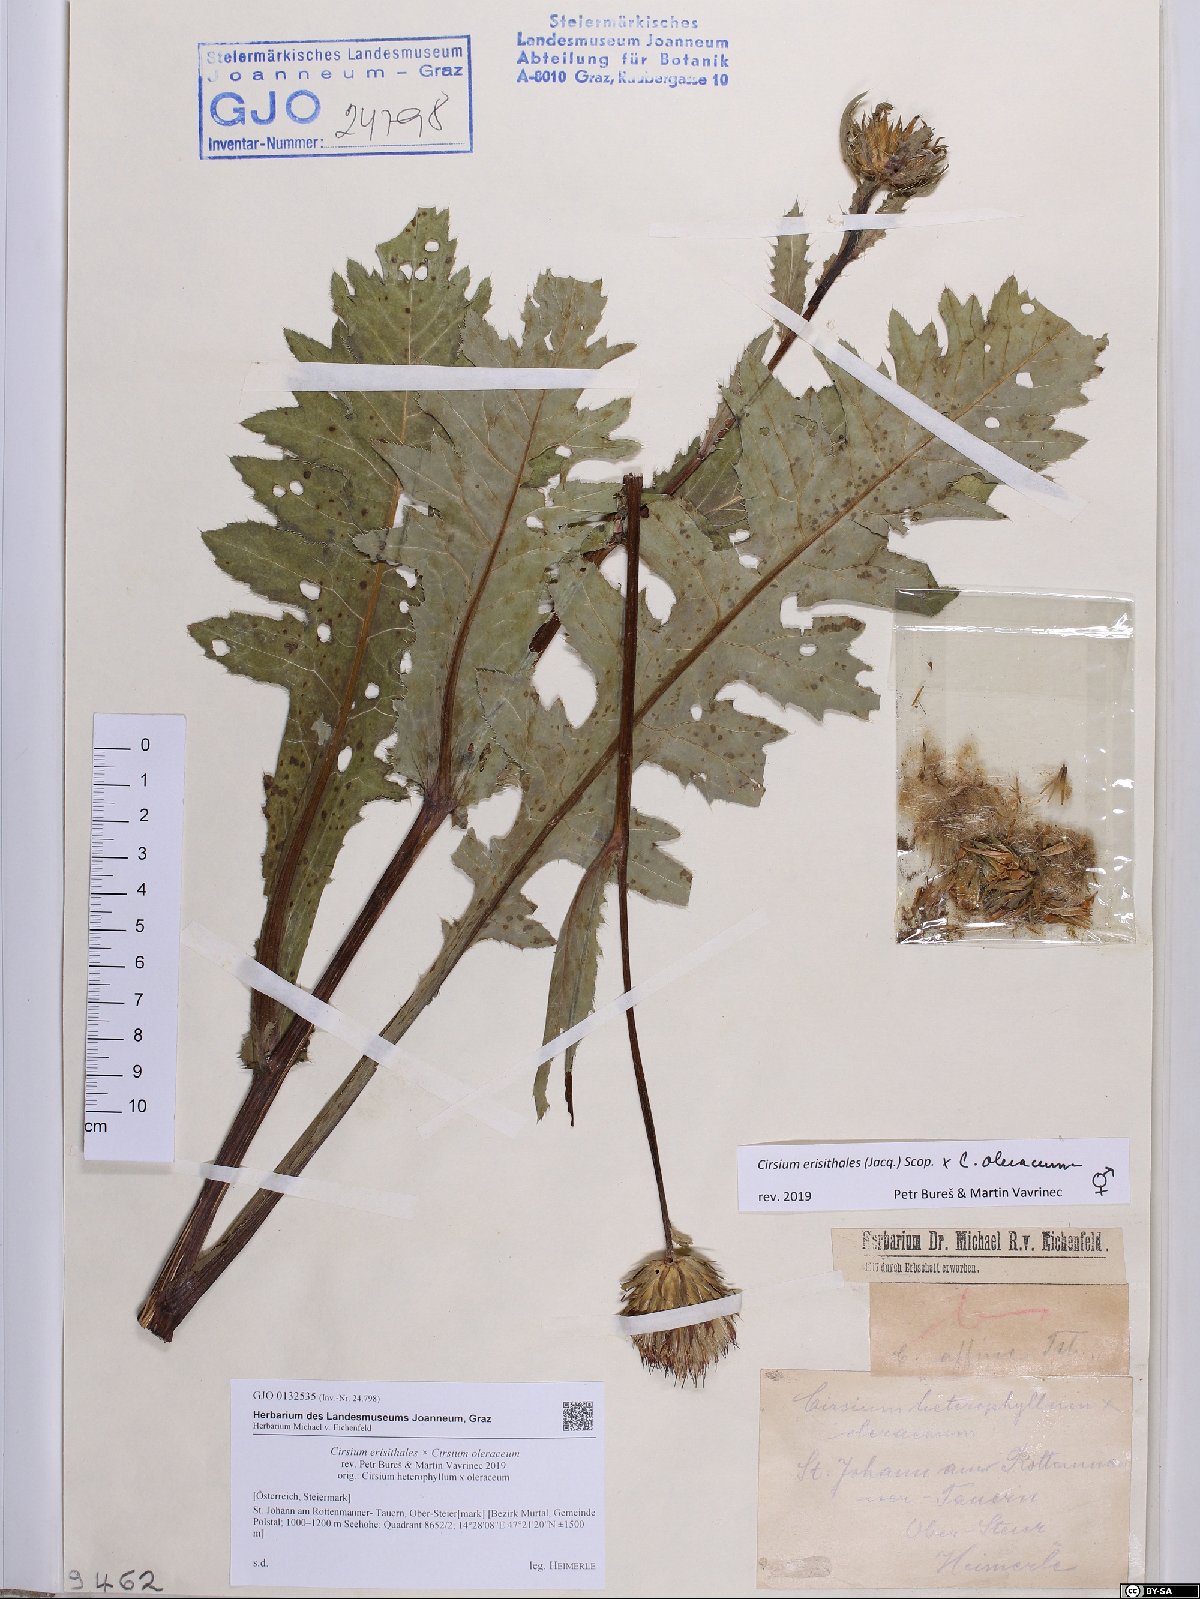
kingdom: Plantae
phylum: Tracheophyta
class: Magnoliopsida
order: Asterales
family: Asteraceae
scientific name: Asteraceae
